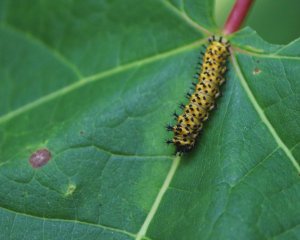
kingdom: Animalia
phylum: Arthropoda
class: Insecta
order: Lepidoptera
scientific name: Lepidoptera
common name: Butterflies
